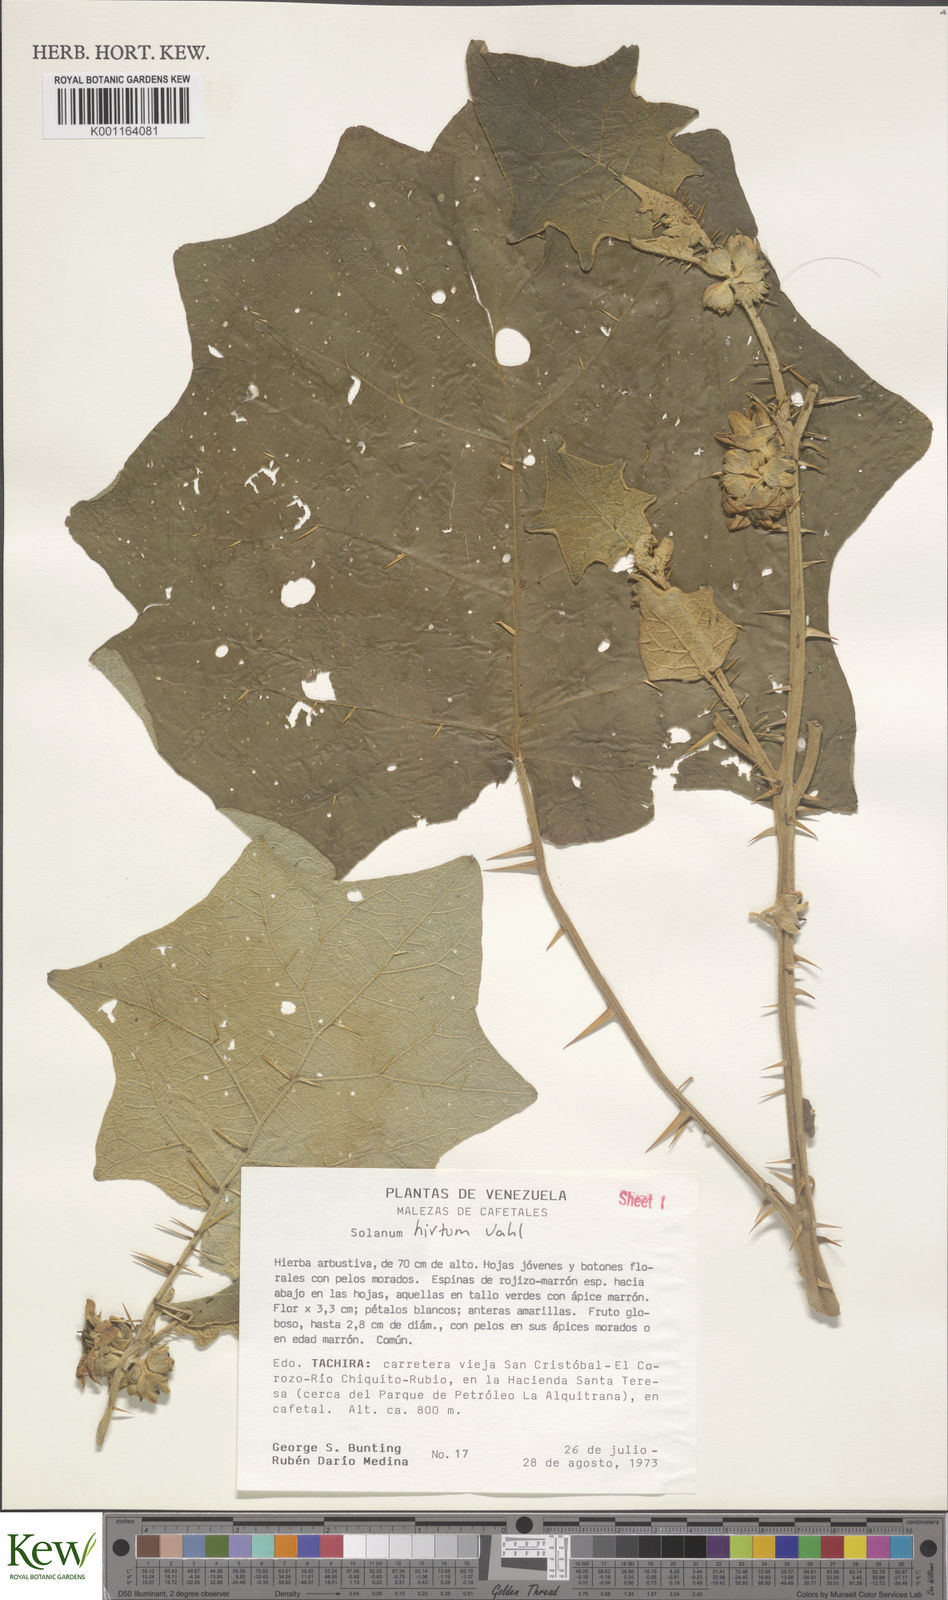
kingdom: Plantae
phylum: Tracheophyta
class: Magnoliopsida
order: Solanales
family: Solanaceae
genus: Solanum
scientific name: Solanum hirtum
